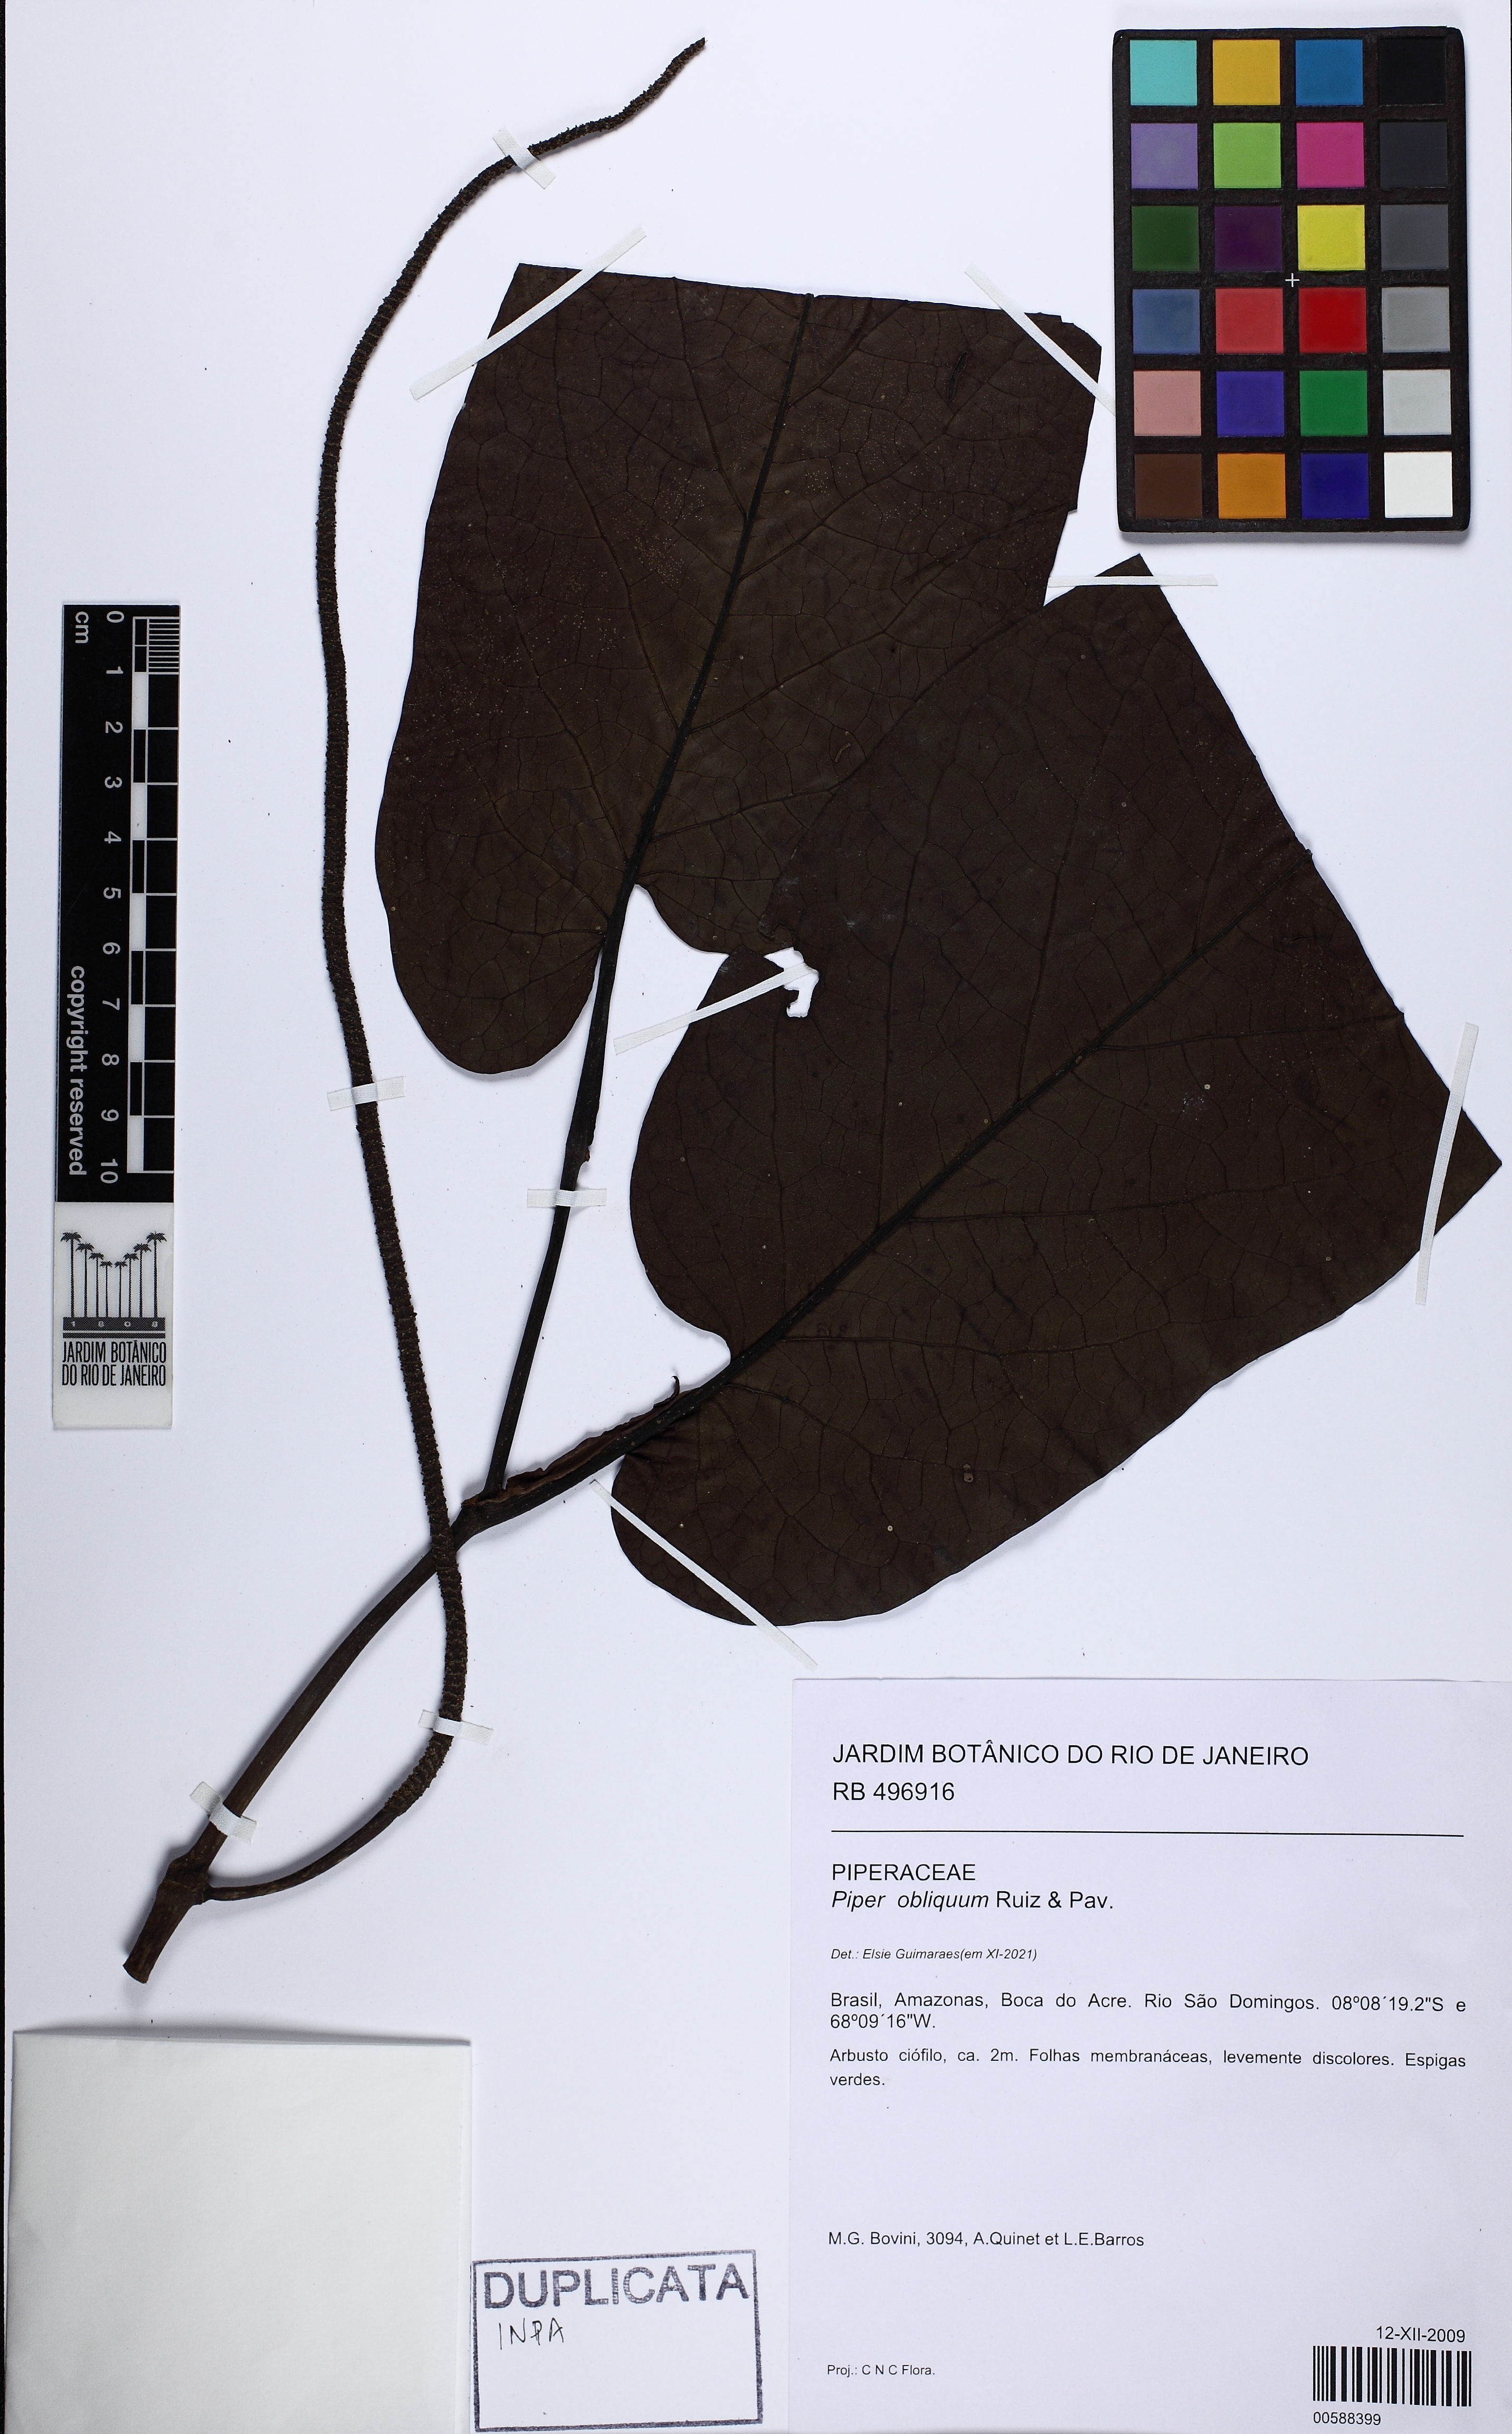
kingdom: Plantae
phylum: Tracheophyta
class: Magnoliopsida
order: Piperales
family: Piperaceae
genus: Piper
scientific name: Piper obliquum
